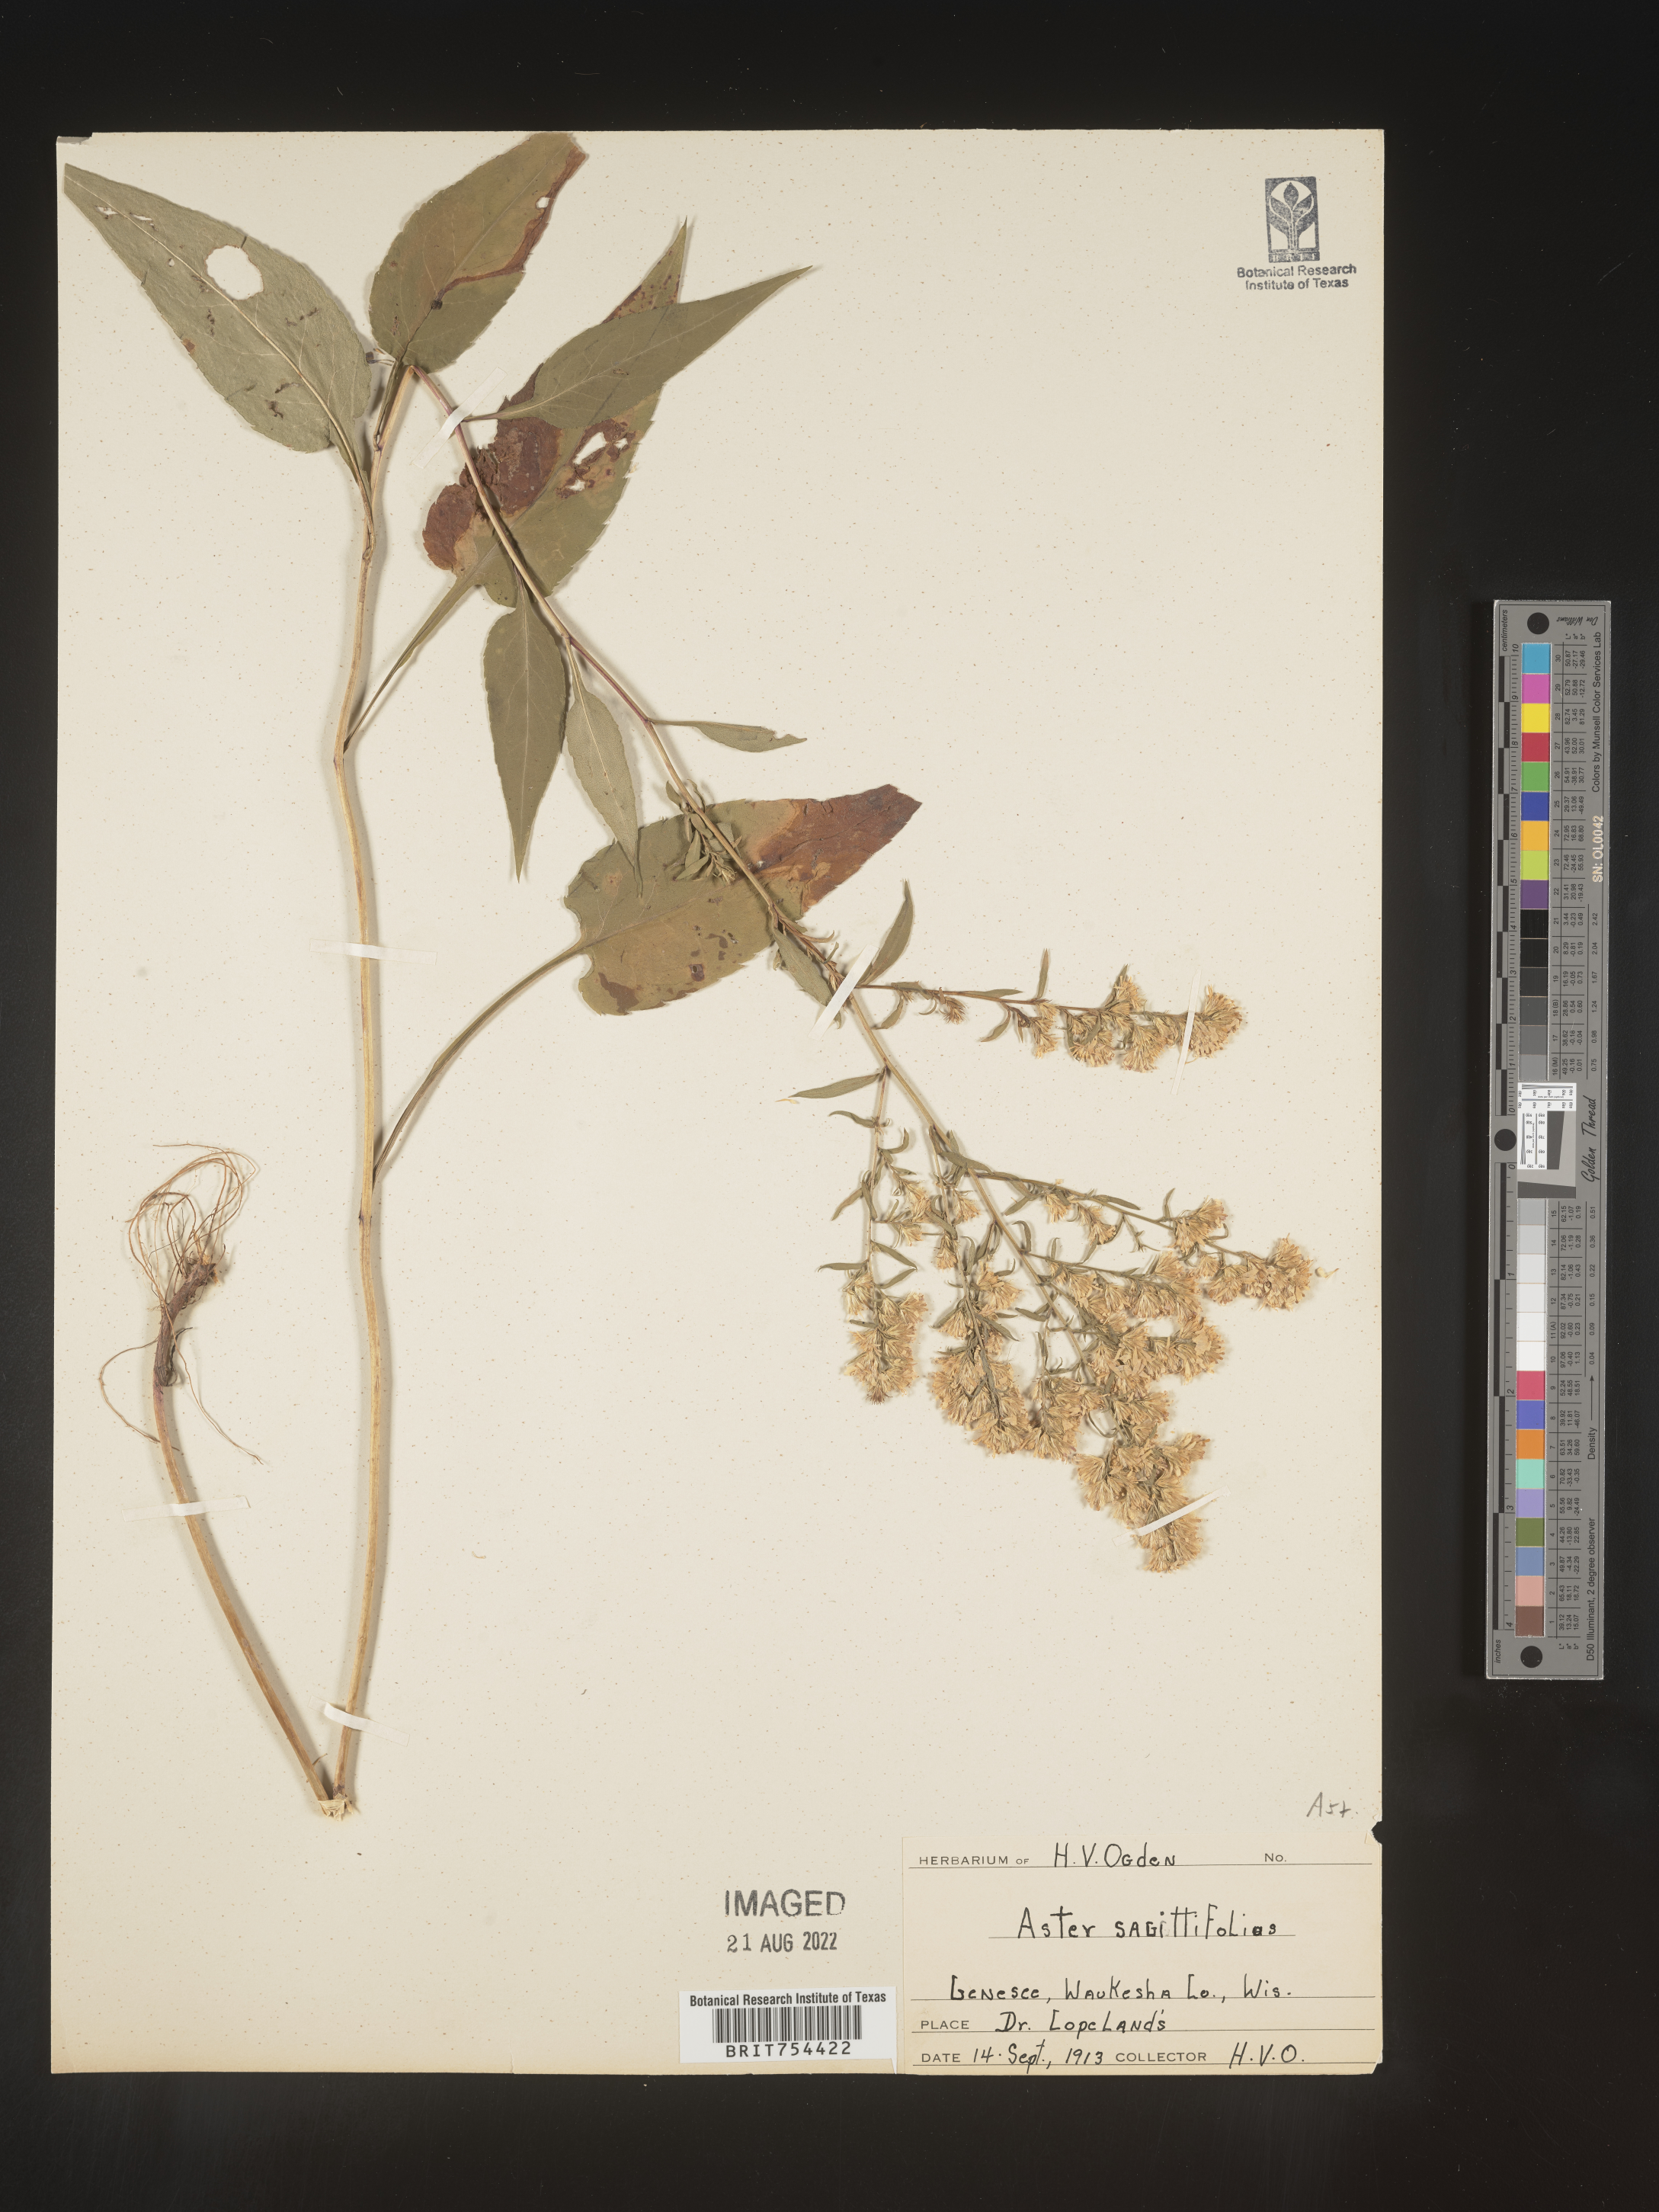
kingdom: Plantae
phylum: Tracheophyta
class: Magnoliopsida
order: Asterales
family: Asteraceae
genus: Symphyotrichum
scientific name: Symphyotrichum shortii
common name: Short's aster
